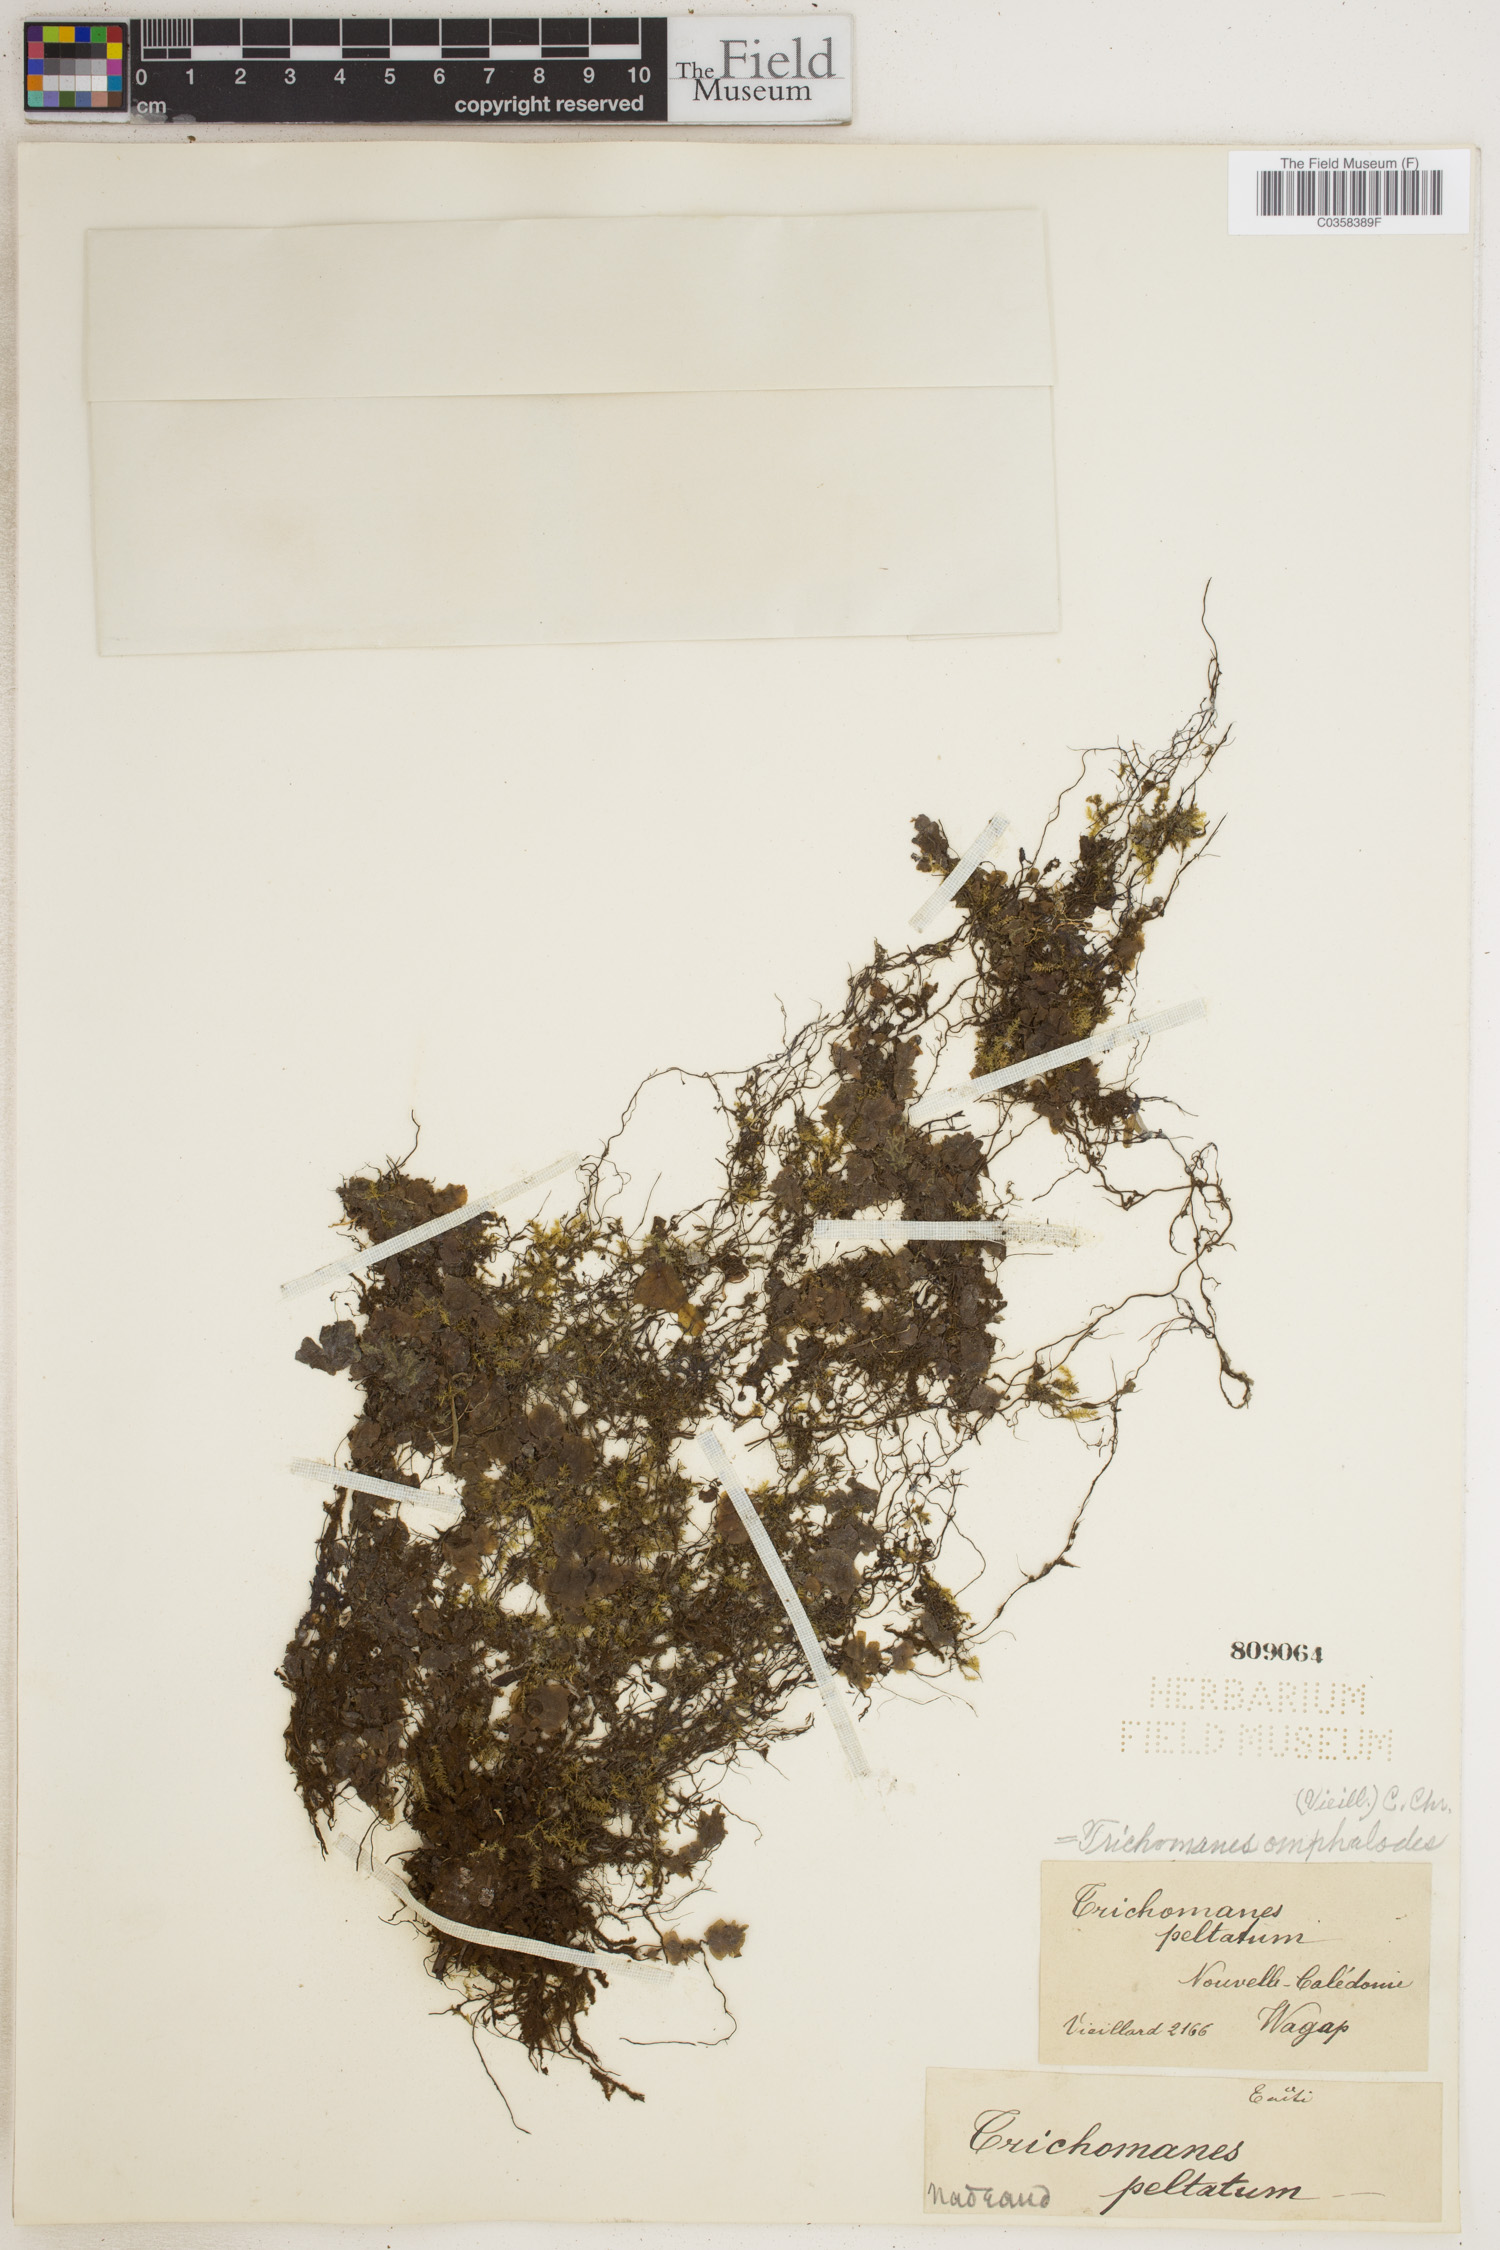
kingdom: Plantae
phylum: Tracheophyta
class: Polypodiopsida
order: Hymenophyllales
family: Hymenophyllaceae
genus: Didymoglossum
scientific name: Didymoglossum tahitense
